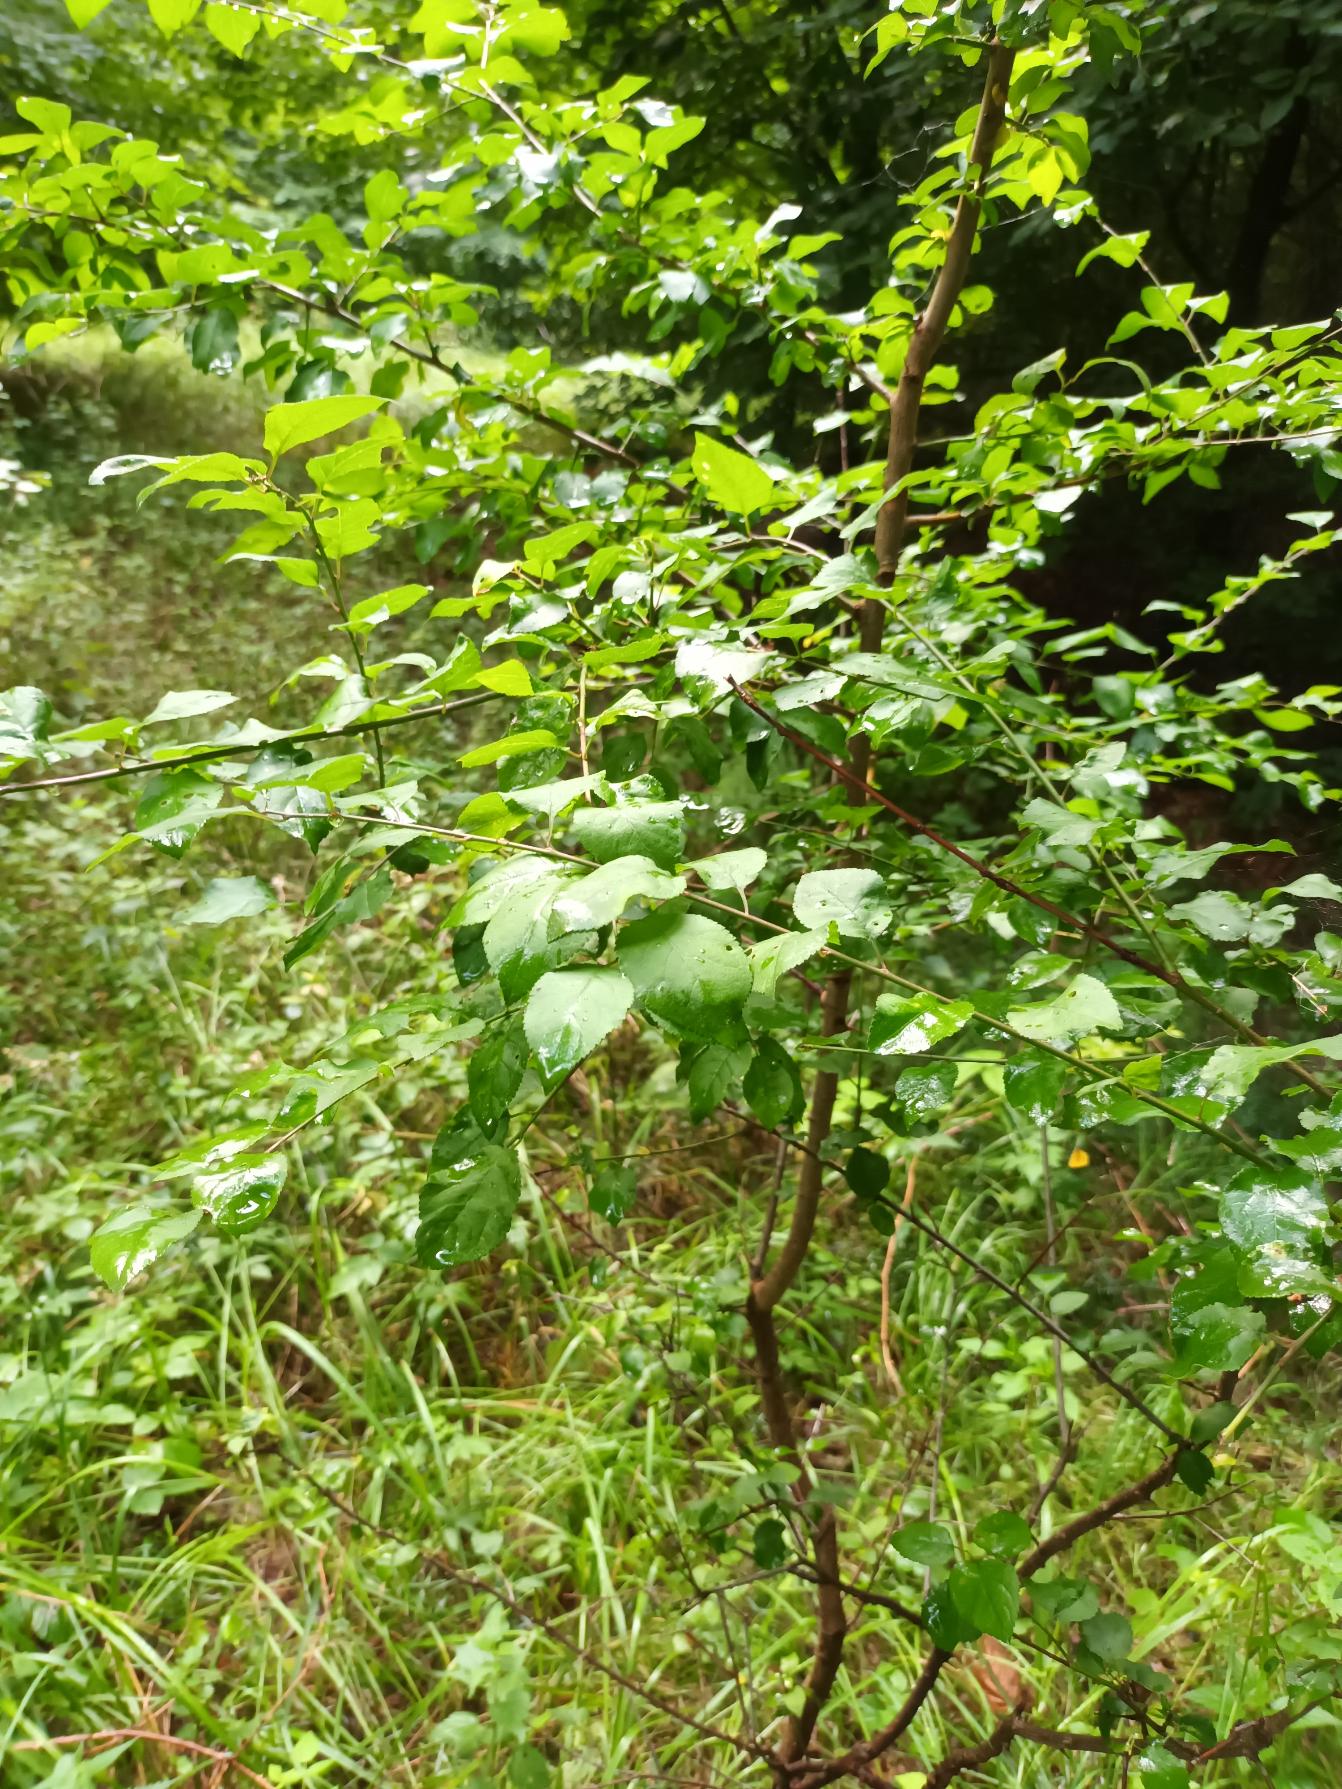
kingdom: Plantae
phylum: Tracheophyta
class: Magnoliopsida
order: Rosales
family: Rosaceae
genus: Prunus
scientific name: Prunus cerasifera
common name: Mirabel
